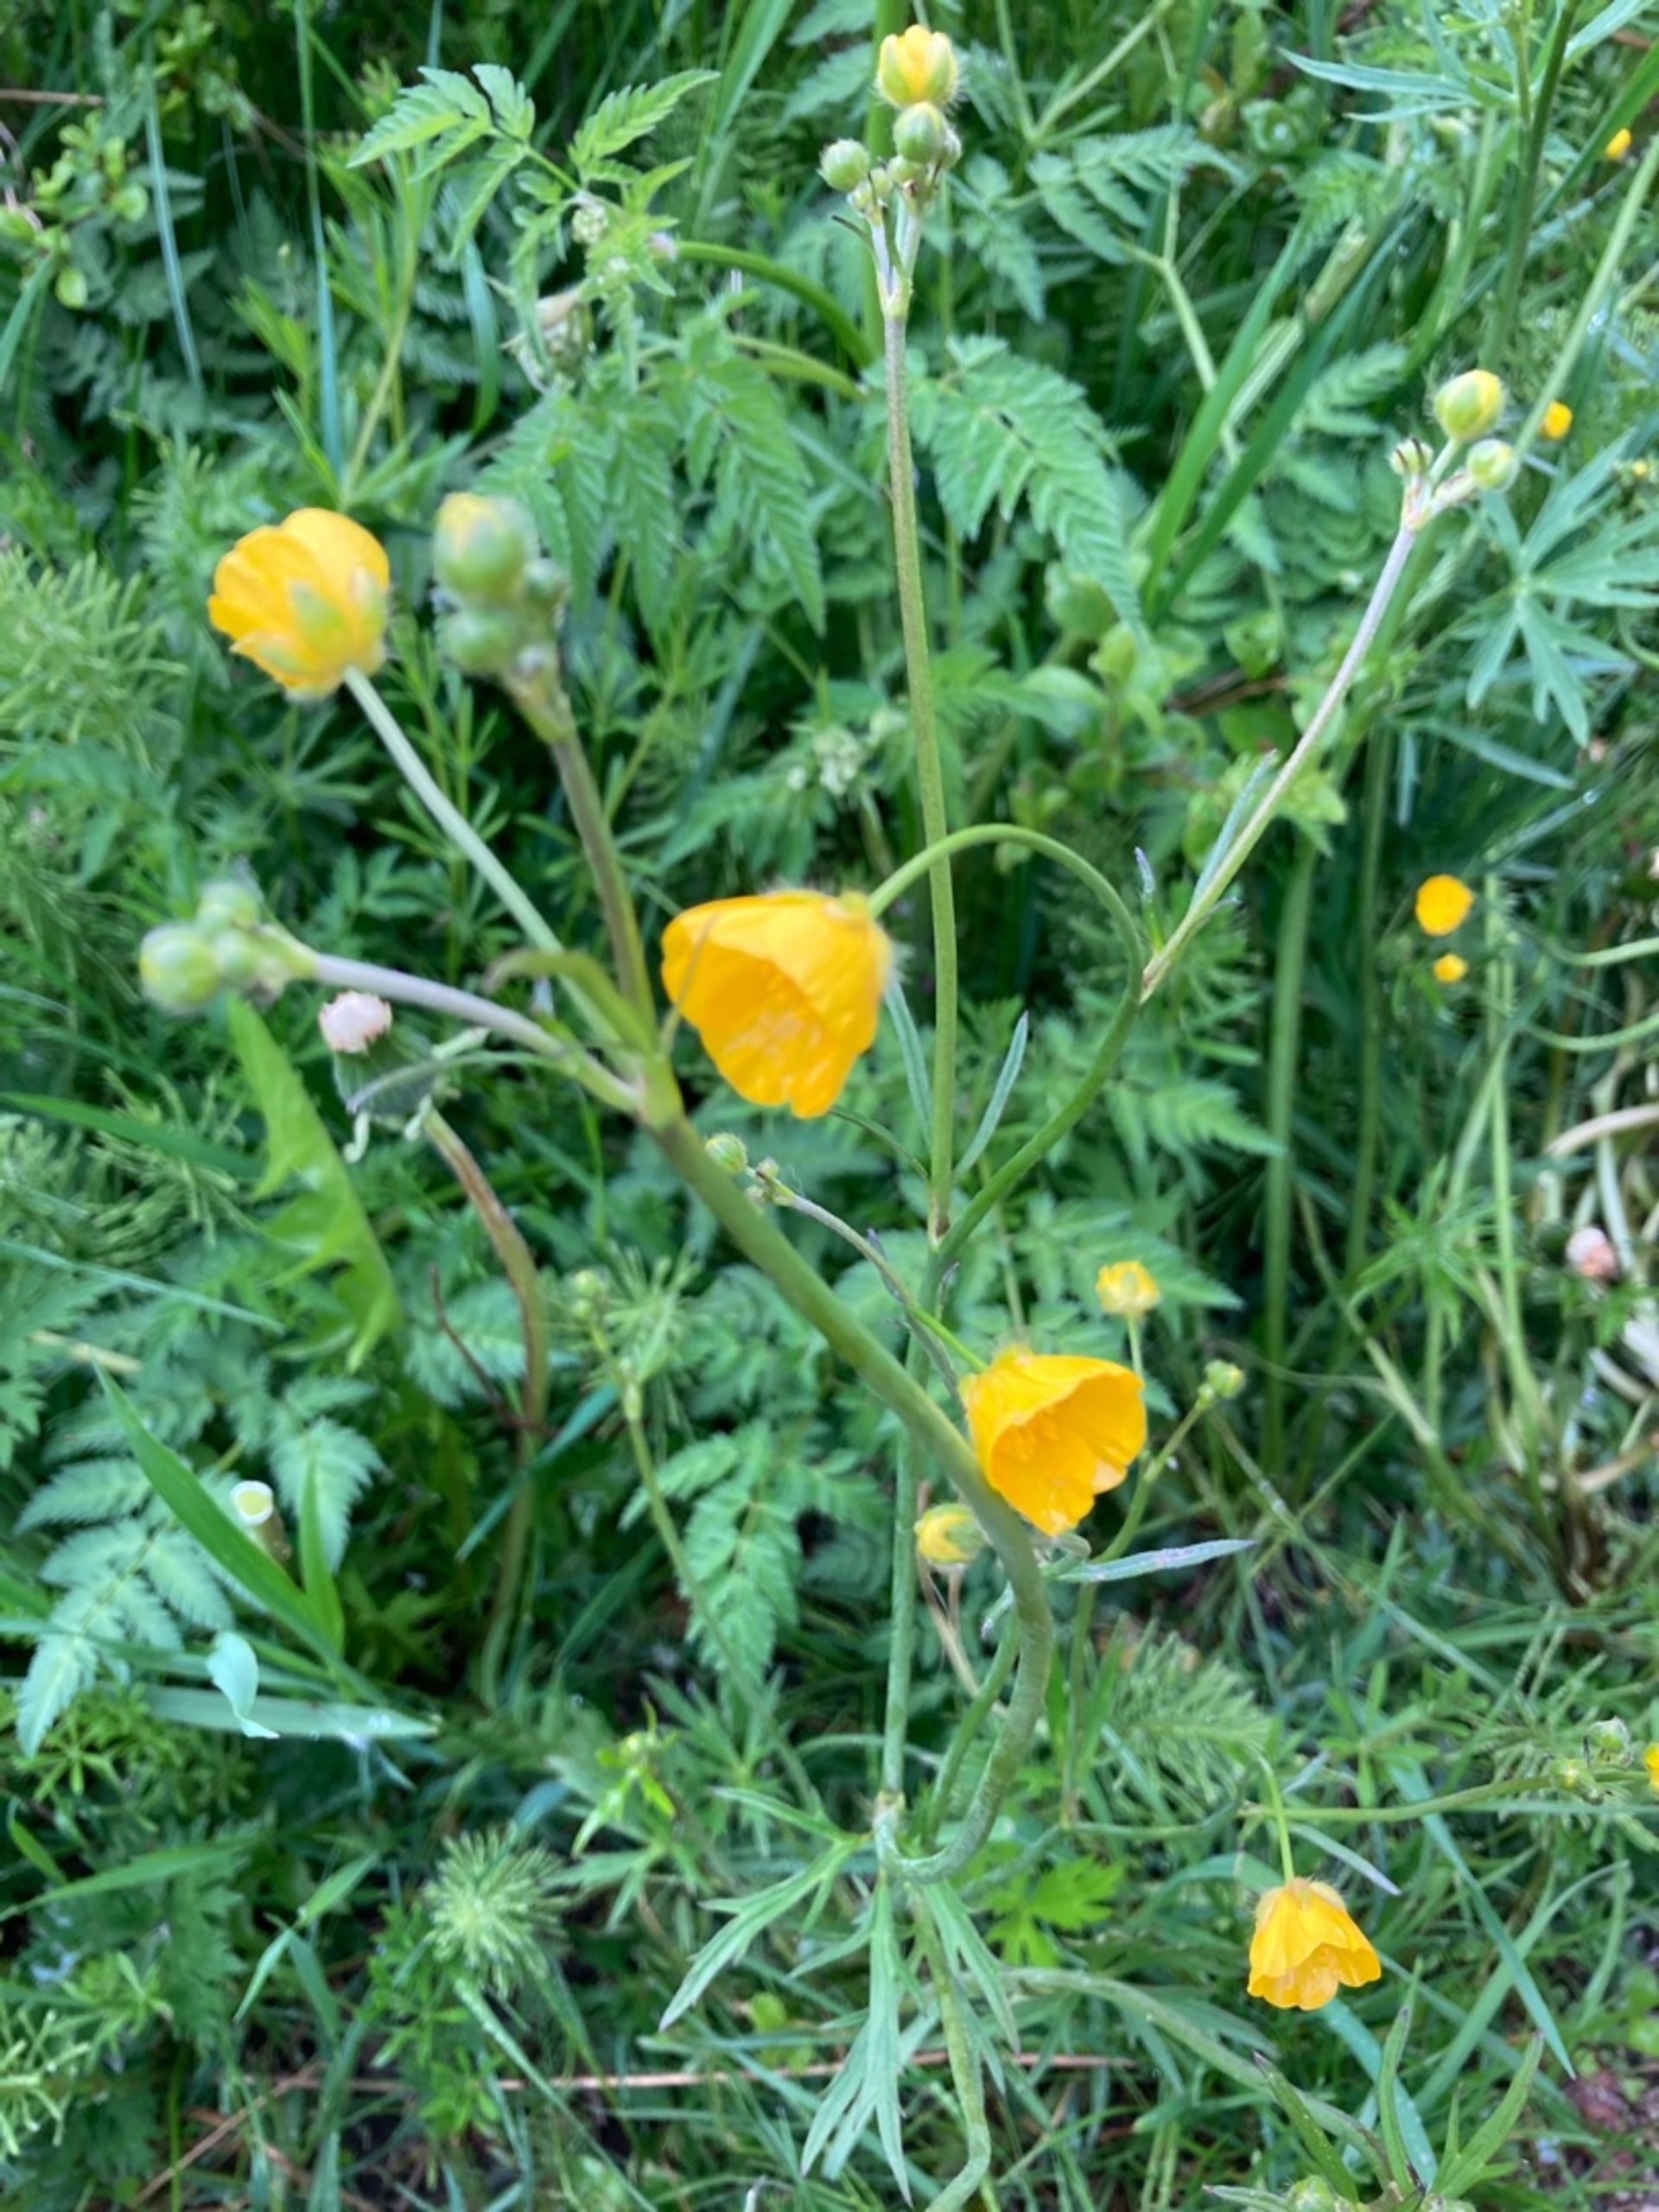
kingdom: Plantae
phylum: Tracheophyta
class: Magnoliopsida
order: Ranunculales
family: Ranunculaceae
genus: Ranunculus
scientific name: Ranunculus acris
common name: Bidende ranunkel
